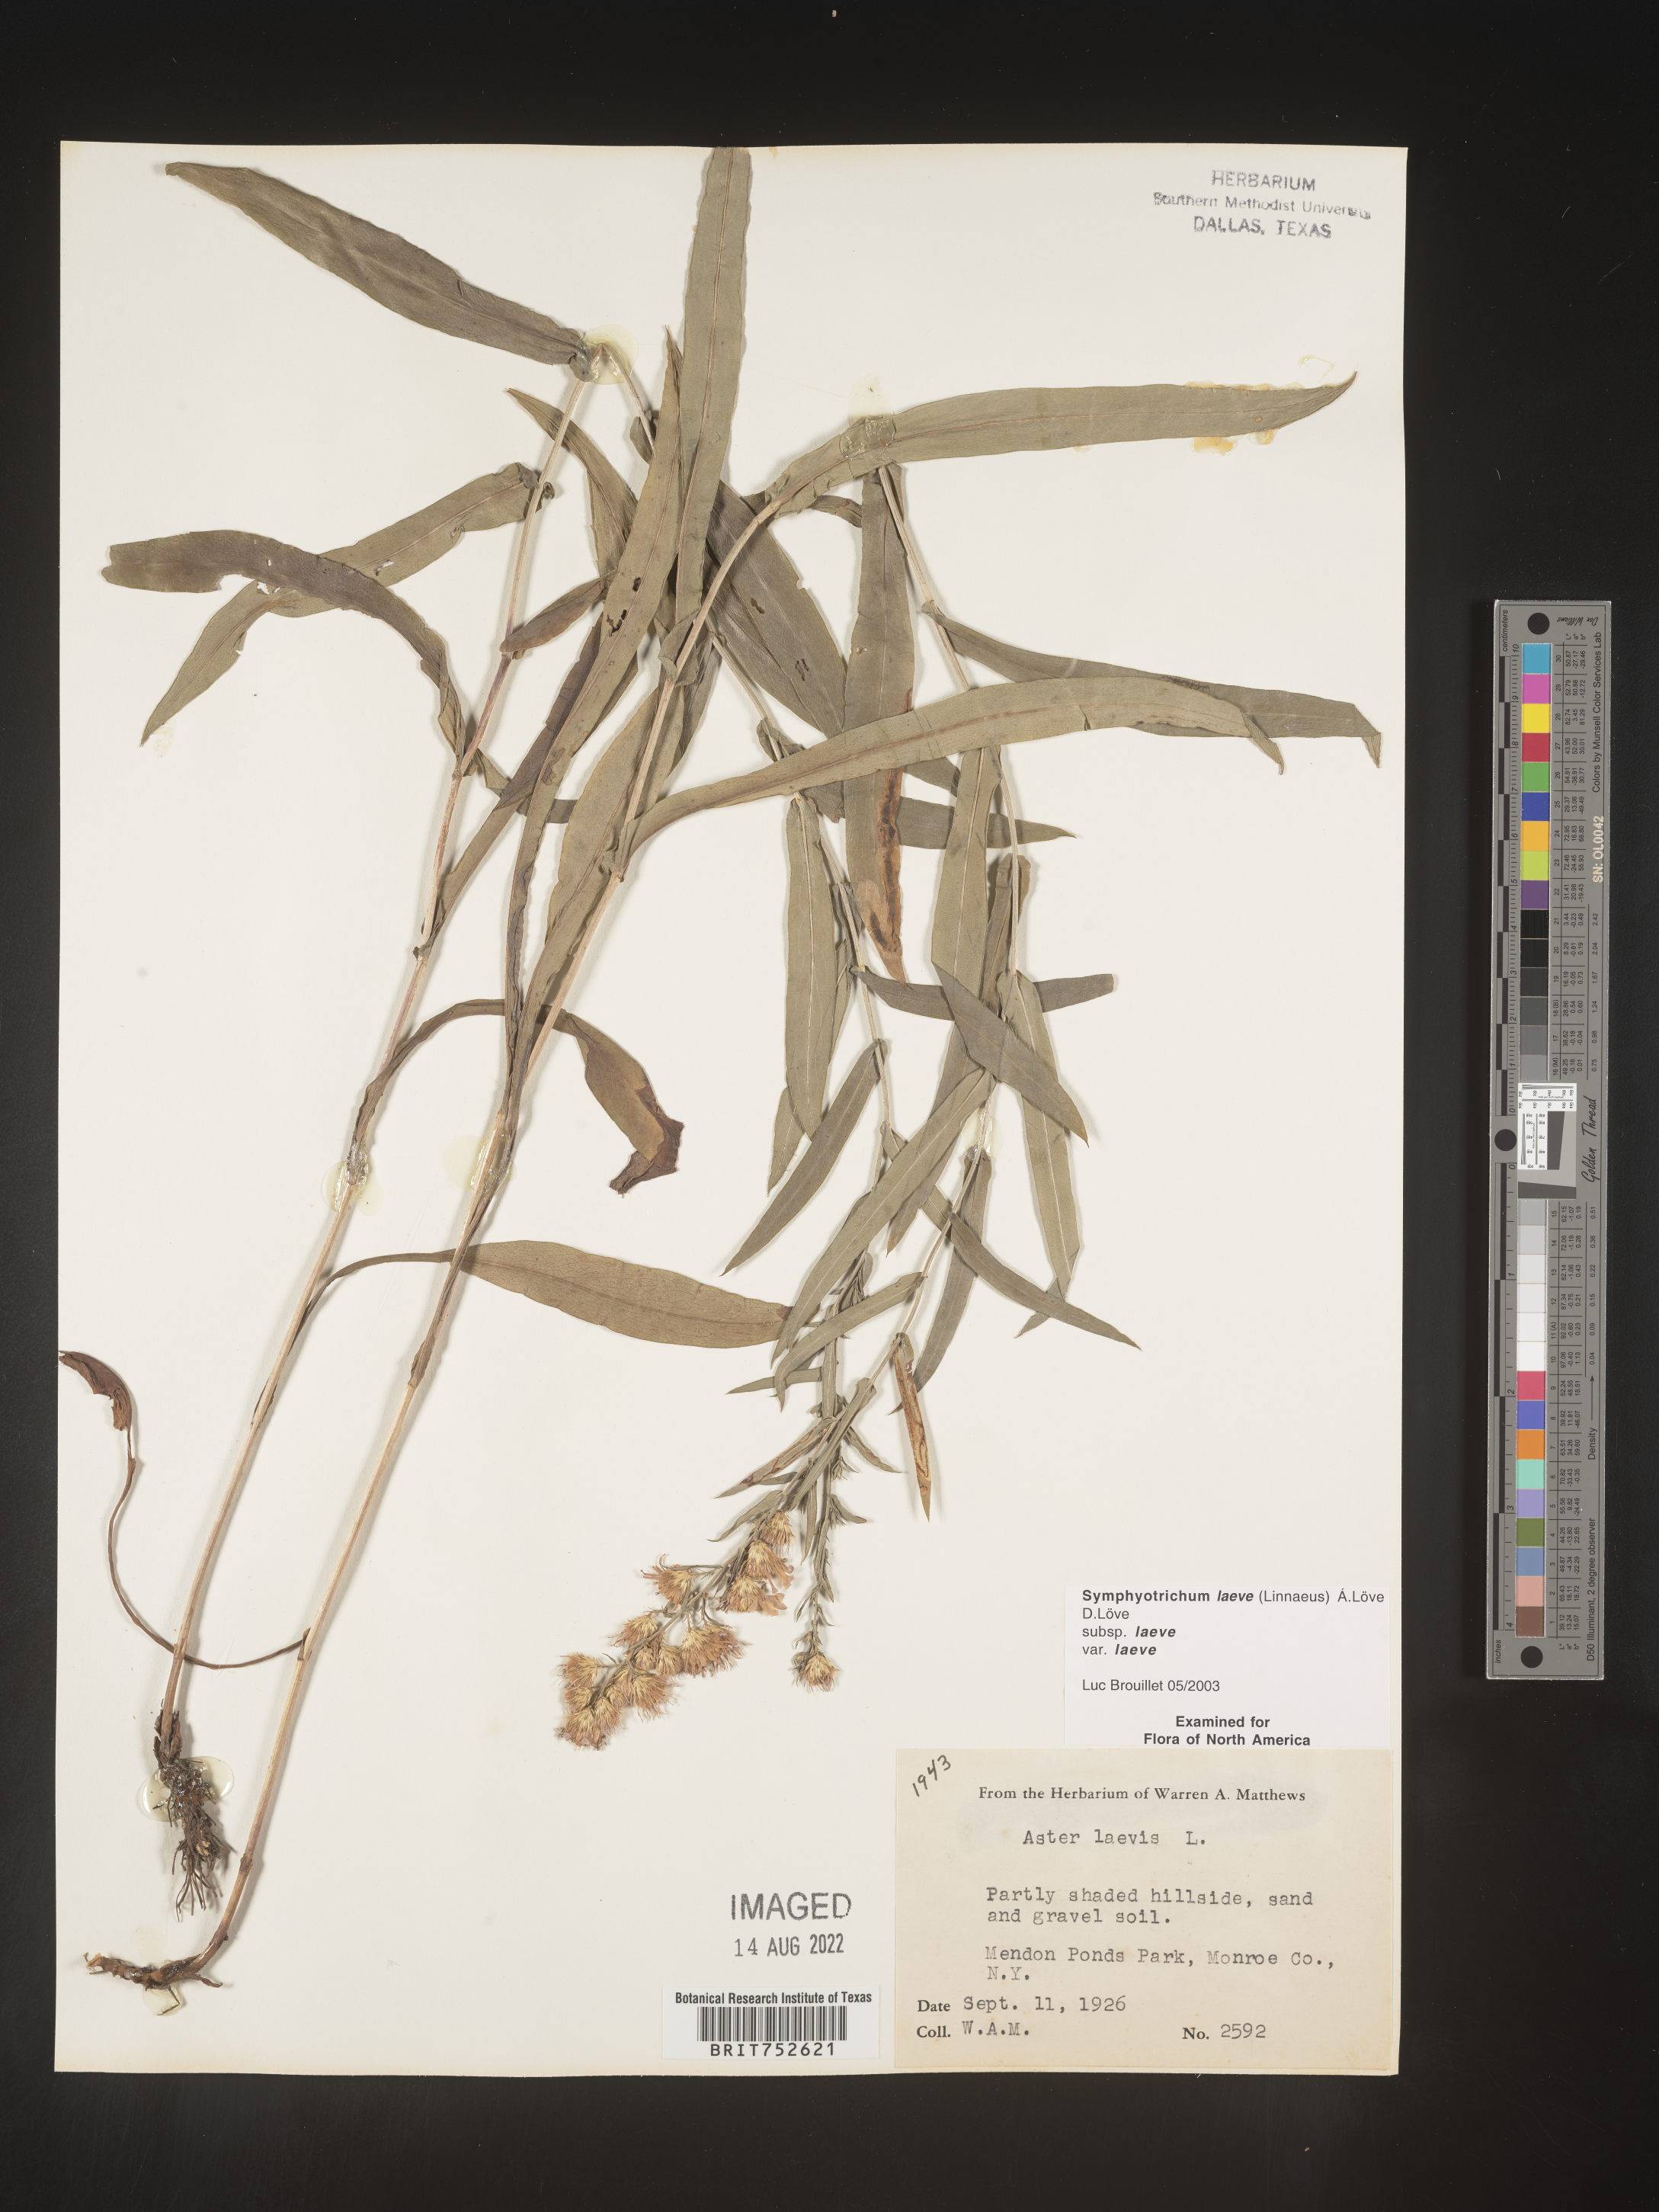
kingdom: Plantae
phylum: Tracheophyta
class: Magnoliopsida
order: Asterales
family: Asteraceae
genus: Symphyotrichum
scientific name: Symphyotrichum laeve
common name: Glaucous aster
